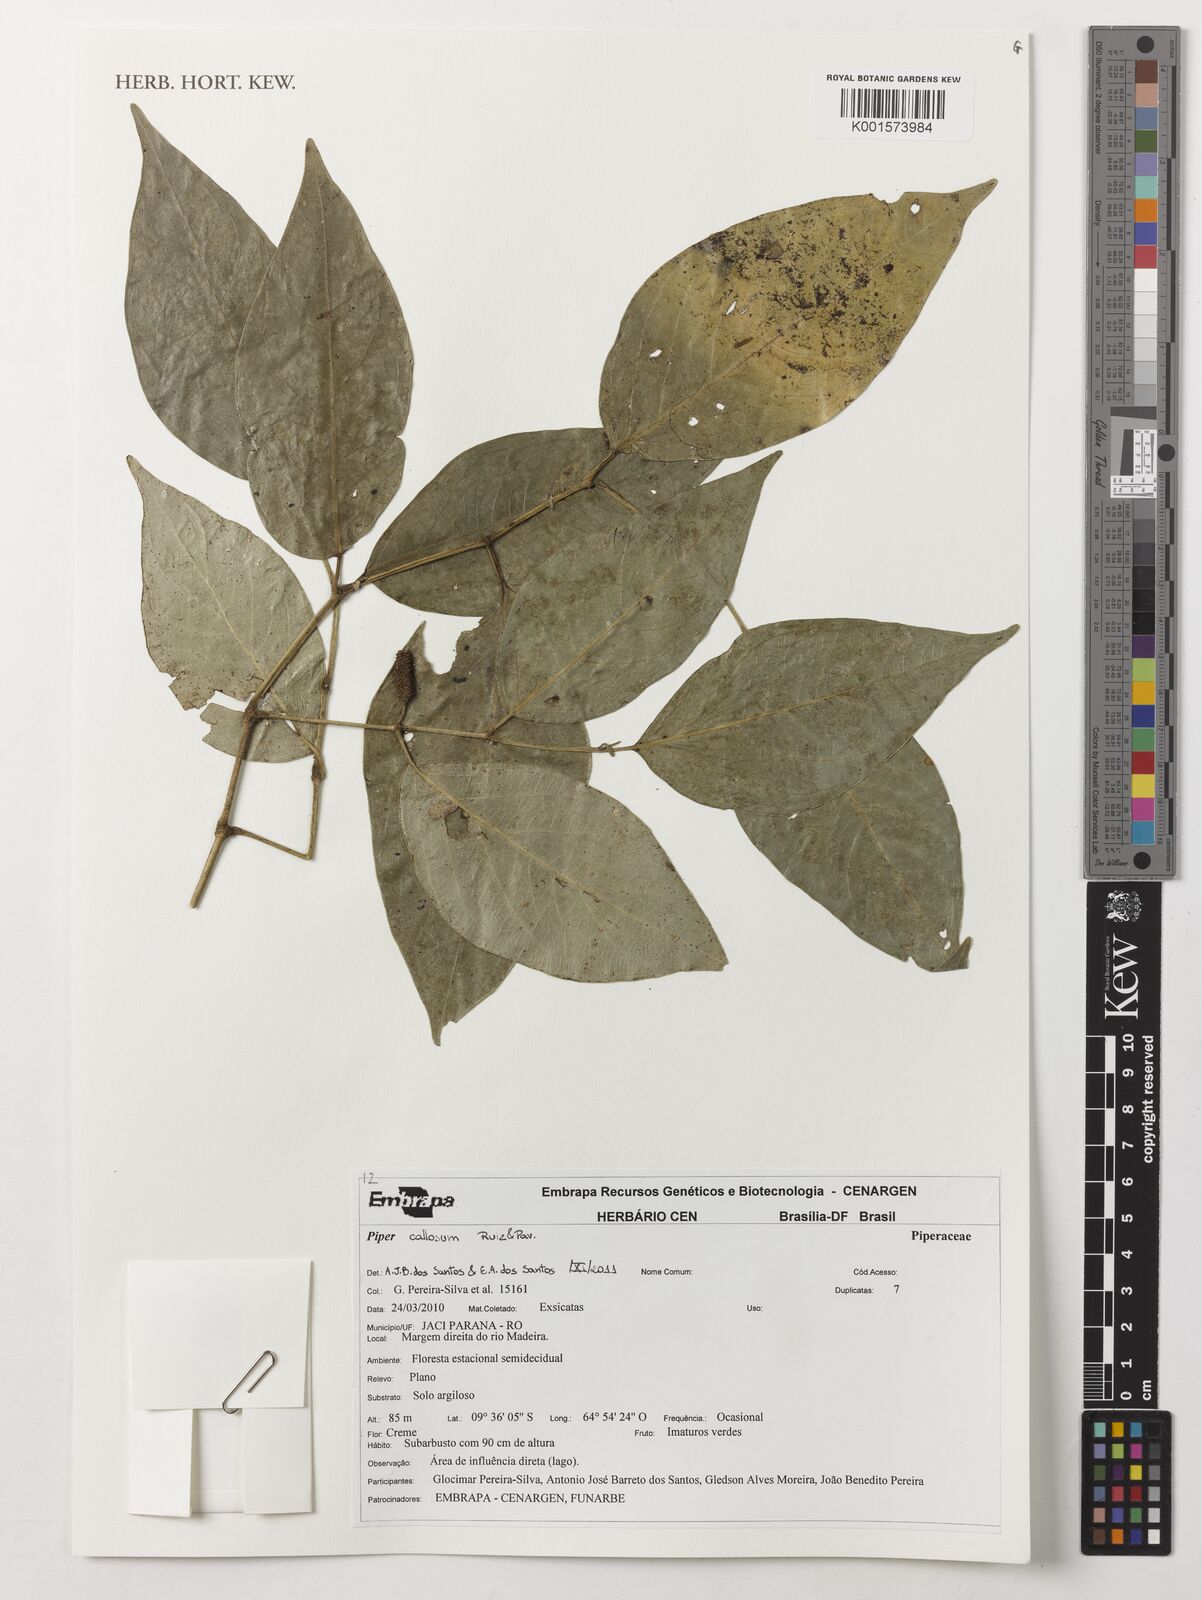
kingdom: Plantae
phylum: Tracheophyta
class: Magnoliopsida
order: Piperales
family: Piperaceae
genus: Piper
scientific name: Piper callosum
